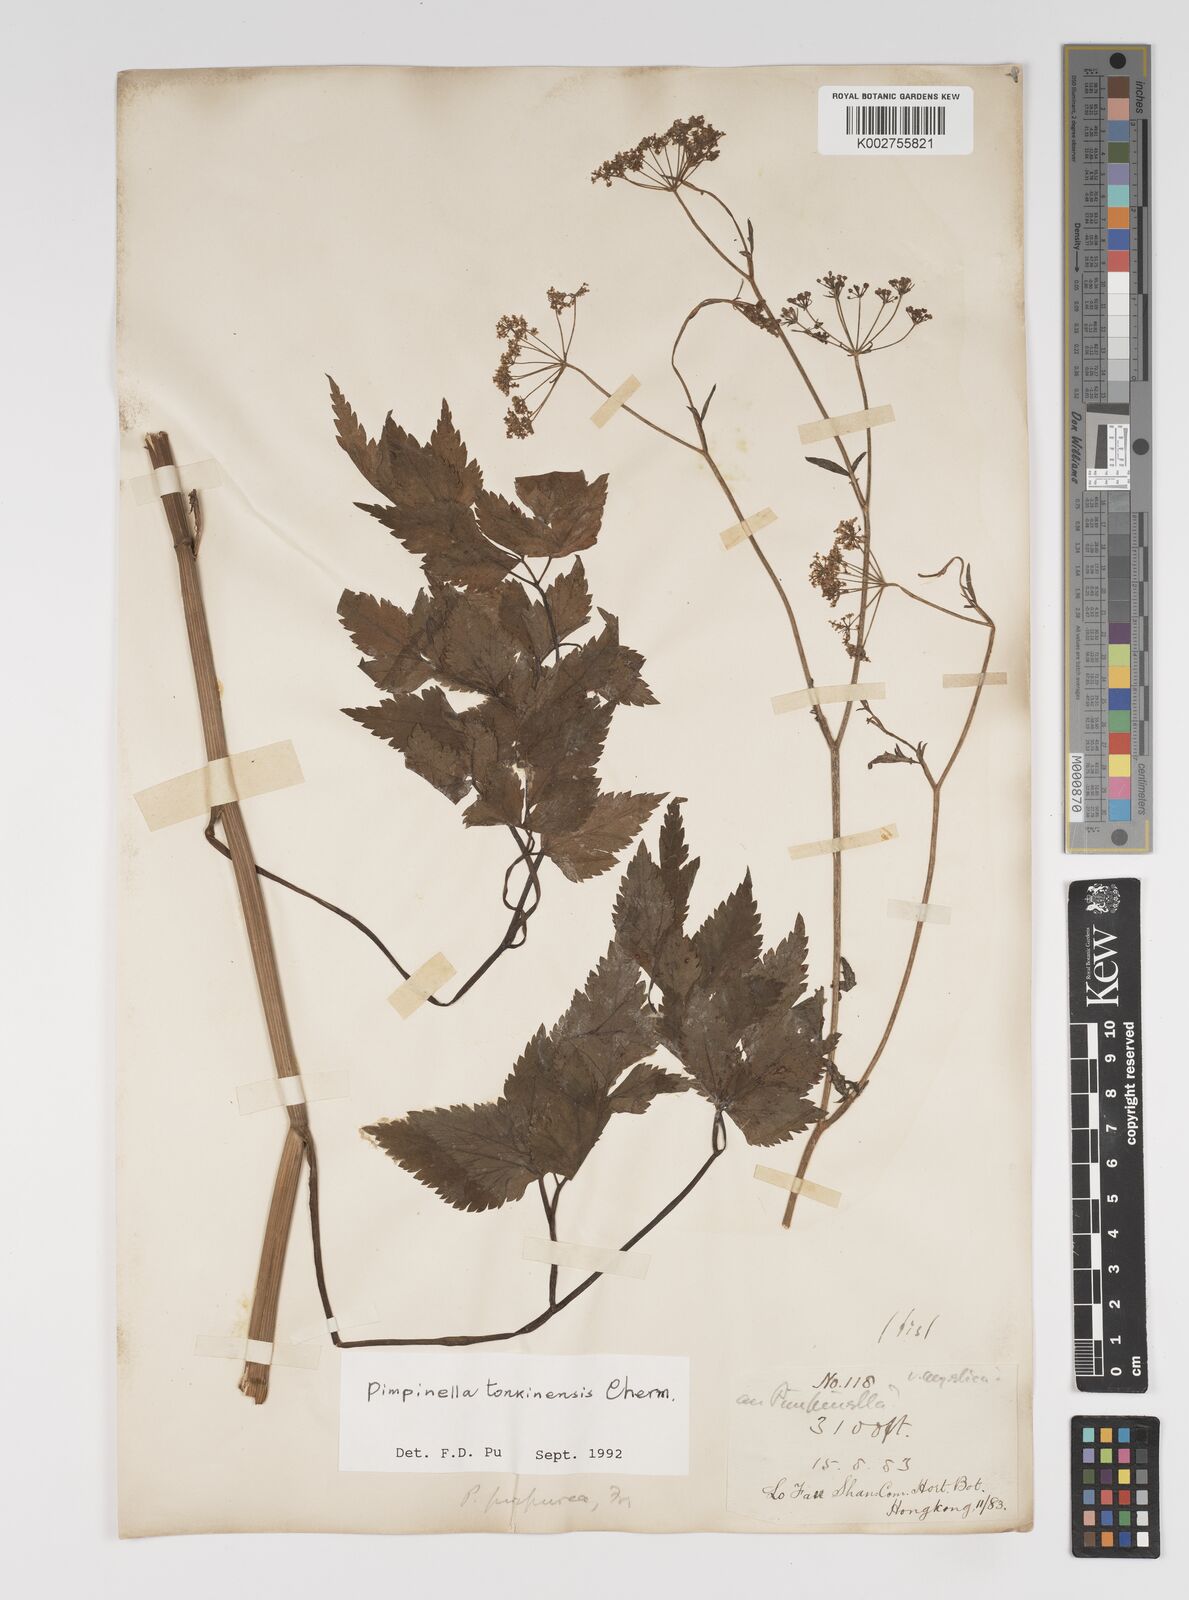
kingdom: Plantae
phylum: Tracheophyta
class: Magnoliopsida
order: Apiales
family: Apiaceae
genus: Pimpinella
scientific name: Pimpinella diversifolia
